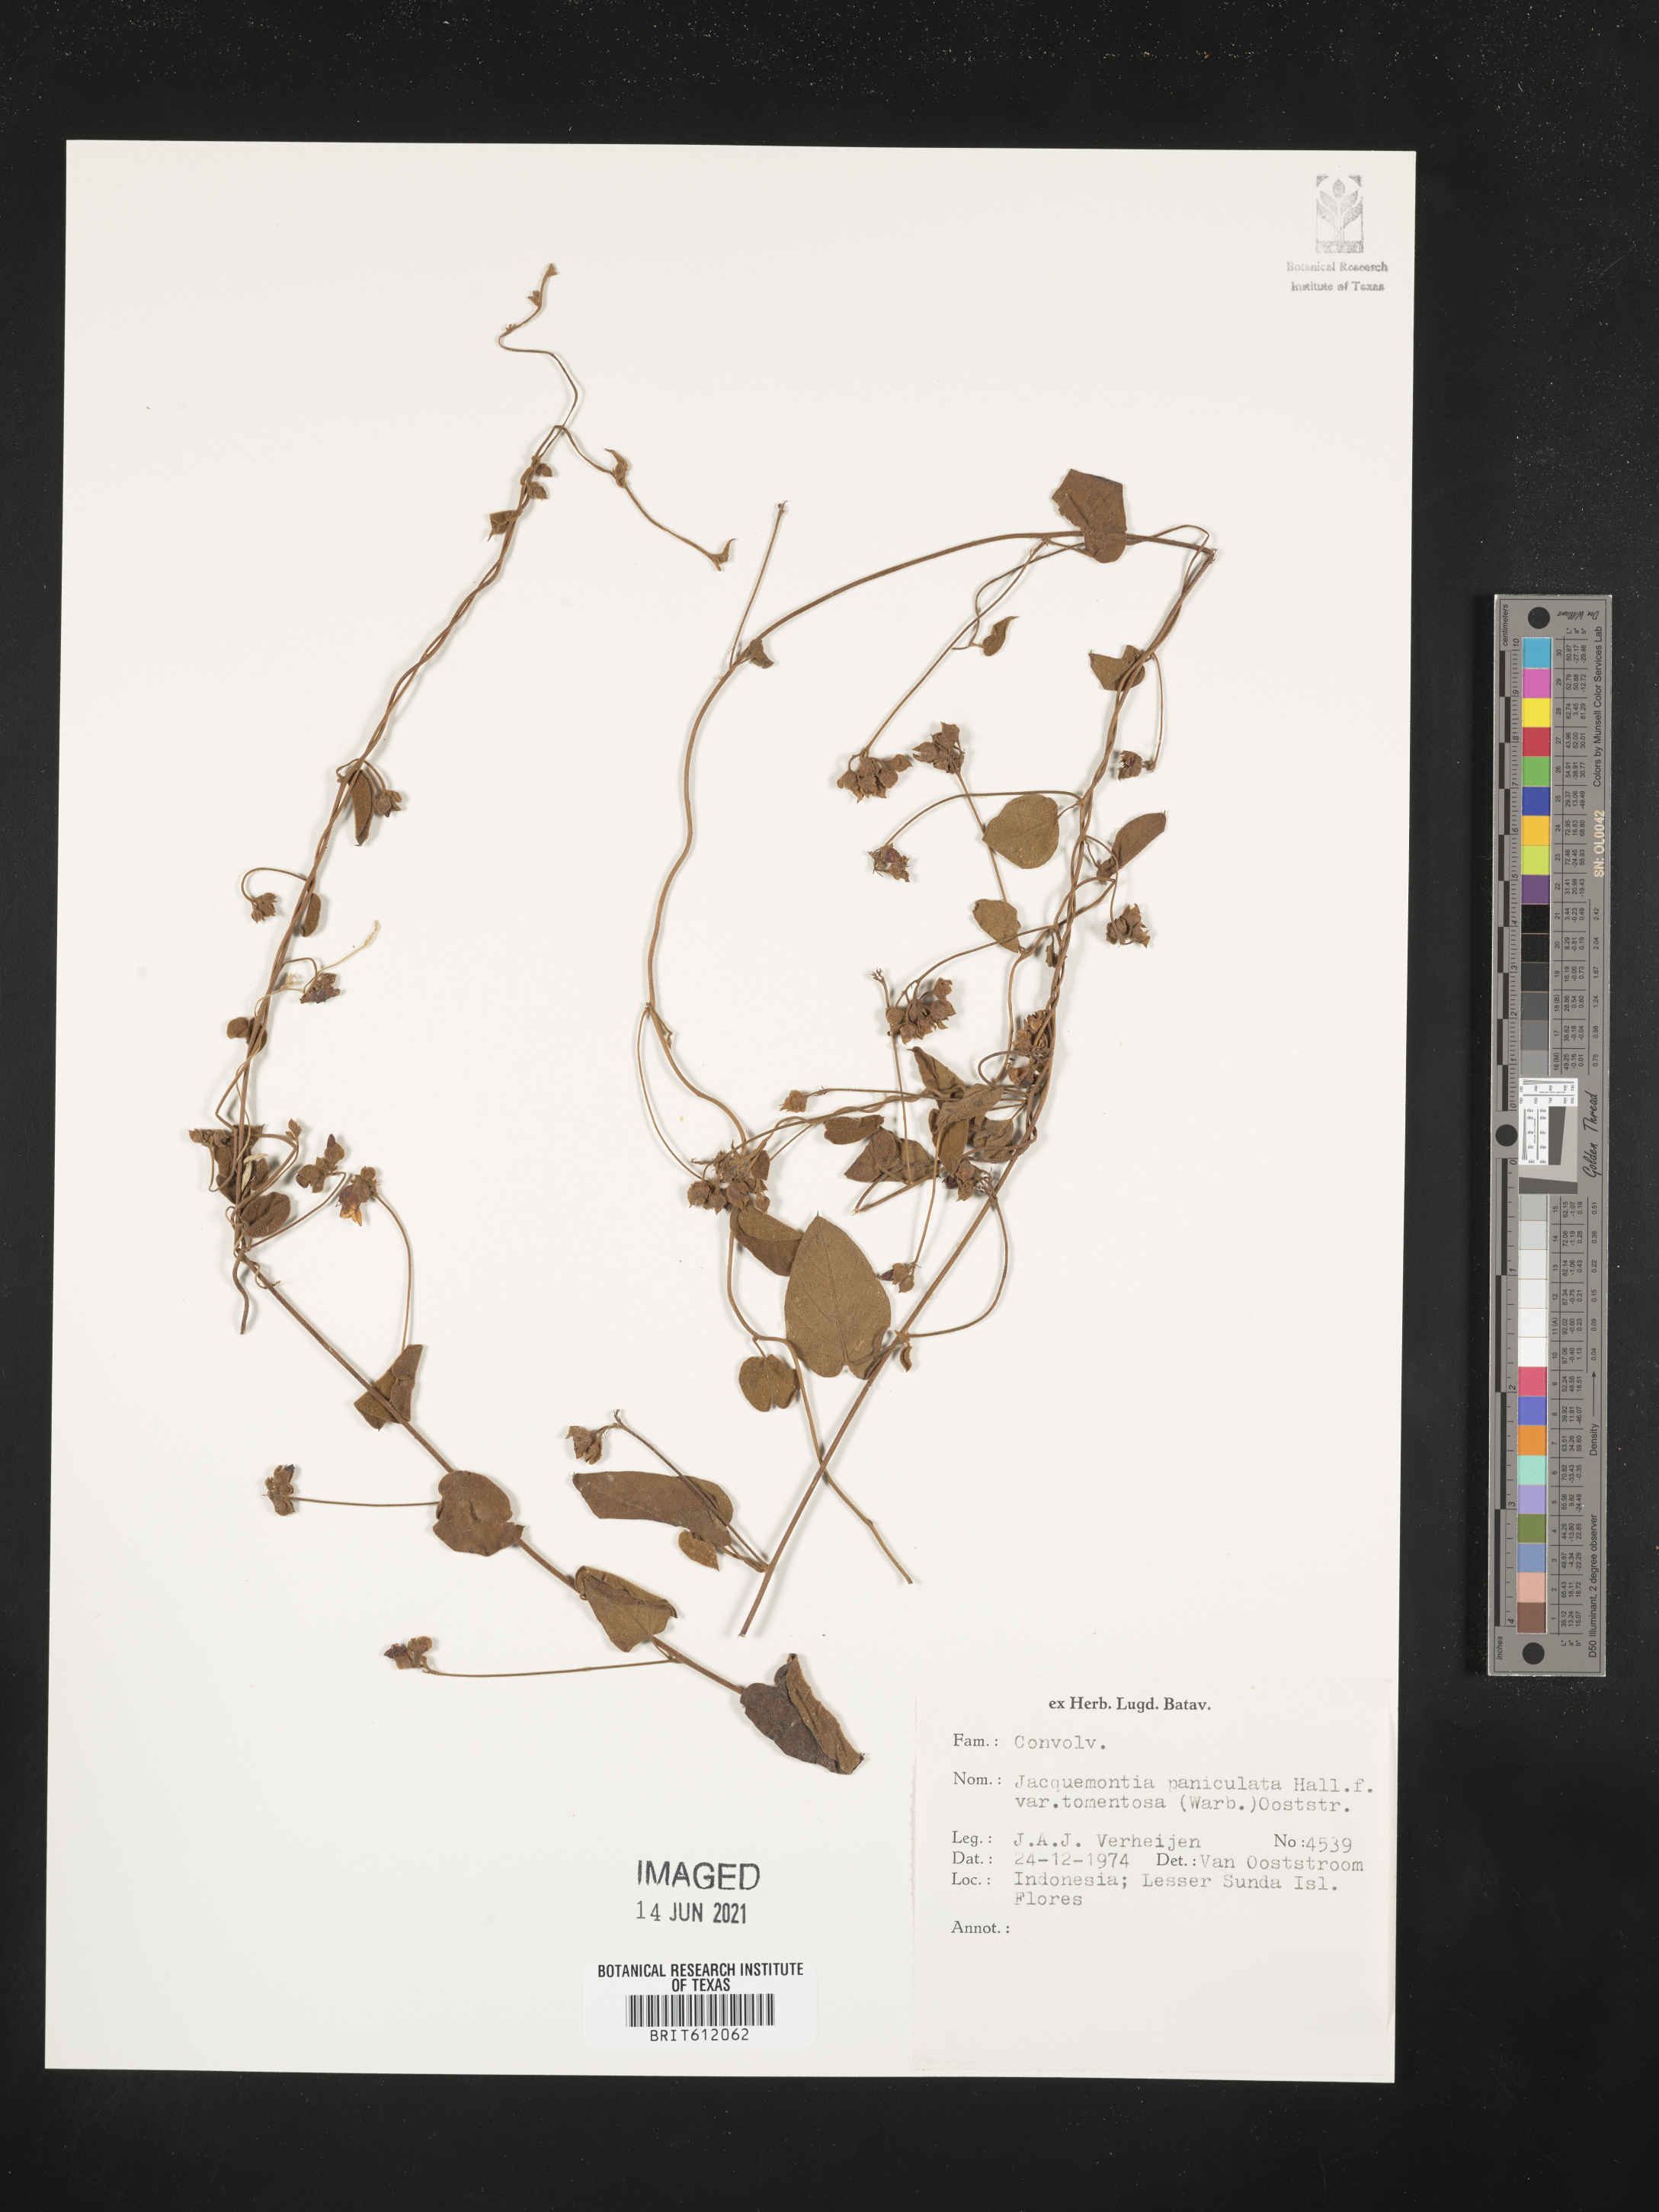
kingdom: Plantae
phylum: Tracheophyta
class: Magnoliopsida
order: Solanales
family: Convolvulaceae
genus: Jacquemontia
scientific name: Jacquemontia paniculata
